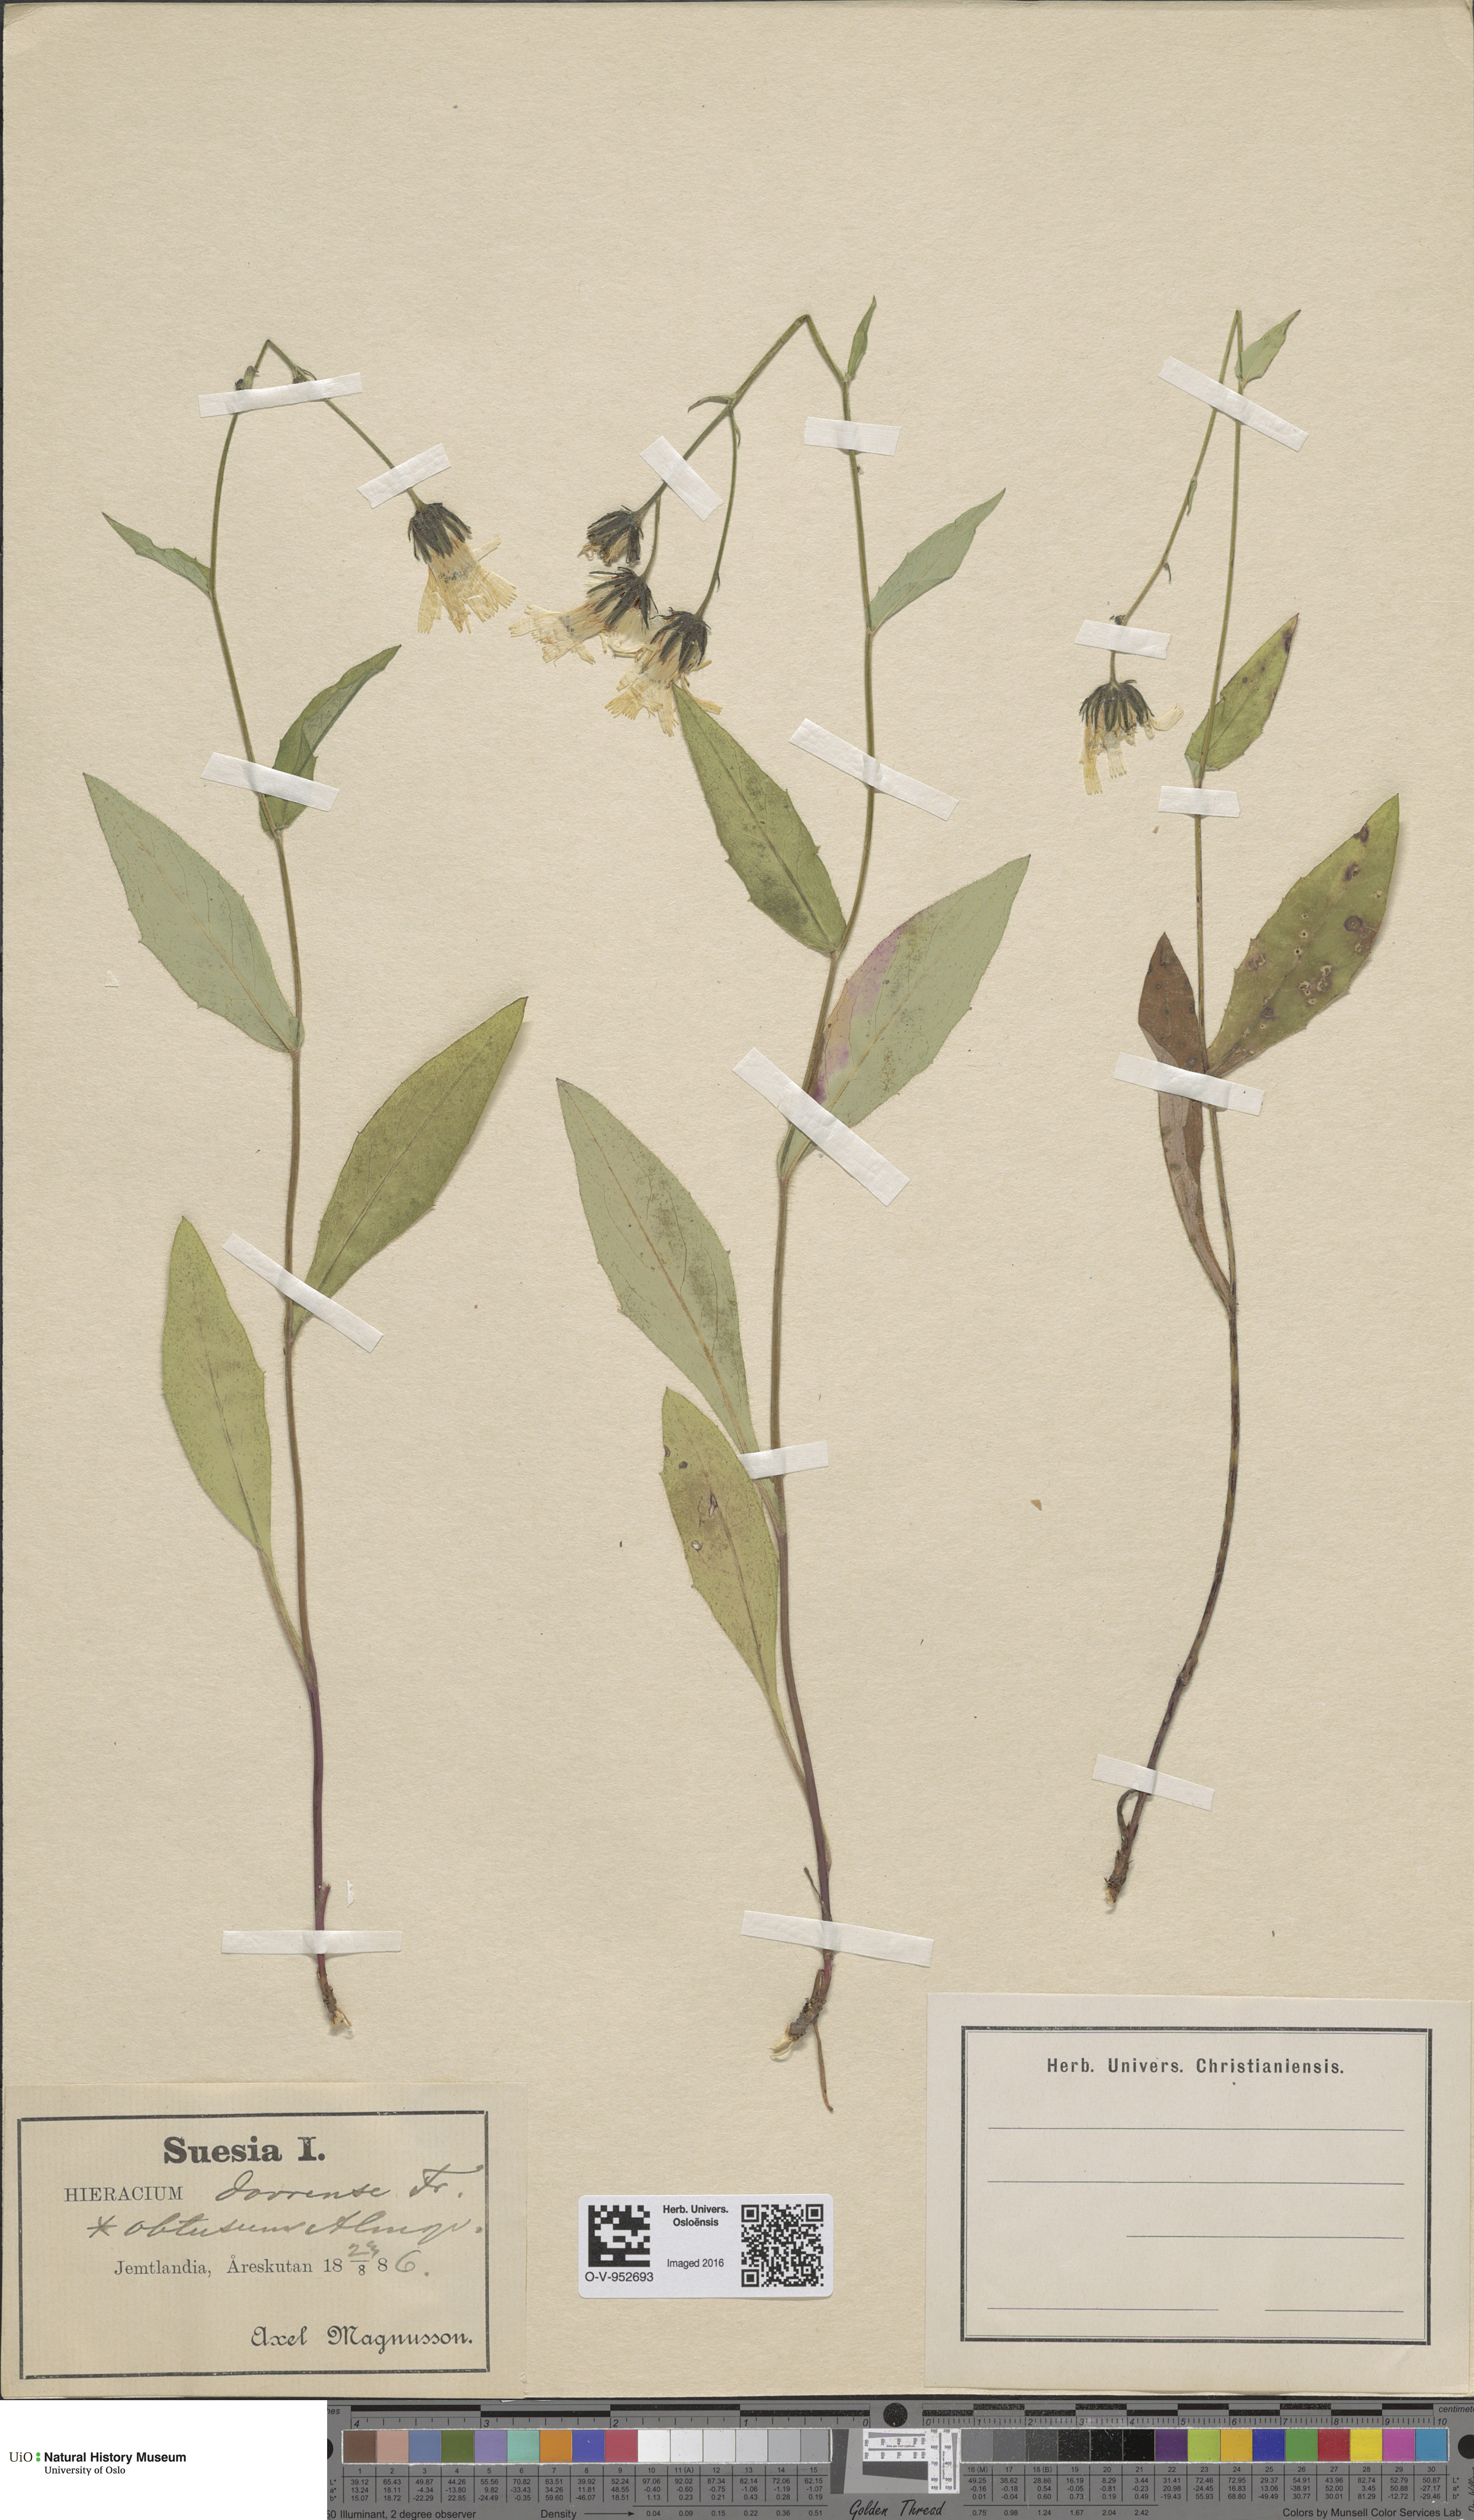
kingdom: Plantae
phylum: Tracheophyta
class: Magnoliopsida
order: Asterales
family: Asteraceae
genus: Hieracium
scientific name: Hieracium dovrense
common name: Dovre hawkweed
